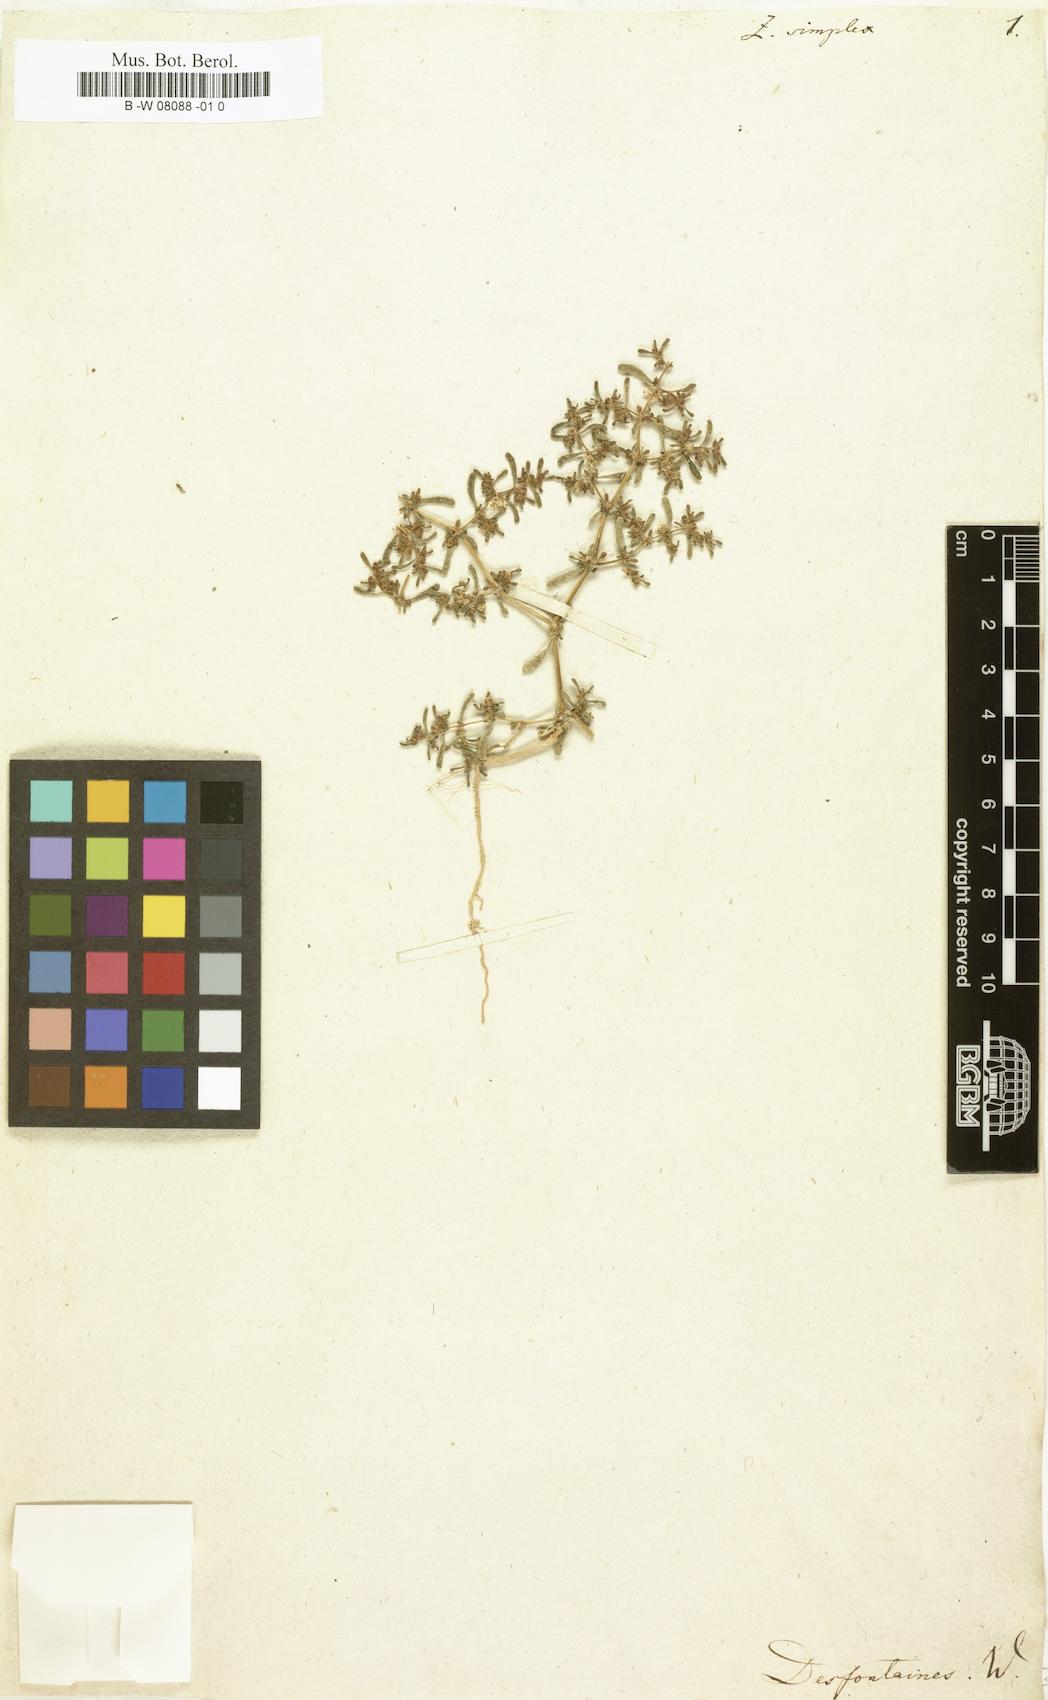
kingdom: Plantae
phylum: Tracheophyta
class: Magnoliopsida
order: Zygophyllales
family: Zygophyllaceae
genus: Tetraena
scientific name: Tetraena simplex
